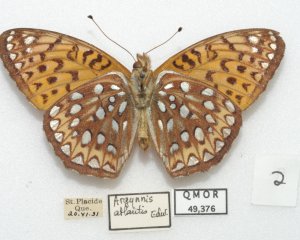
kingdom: Animalia
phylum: Arthropoda
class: Insecta
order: Lepidoptera
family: Nymphalidae
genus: Speyeria
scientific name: Speyeria atlantis
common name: Atlantis Fritillary
